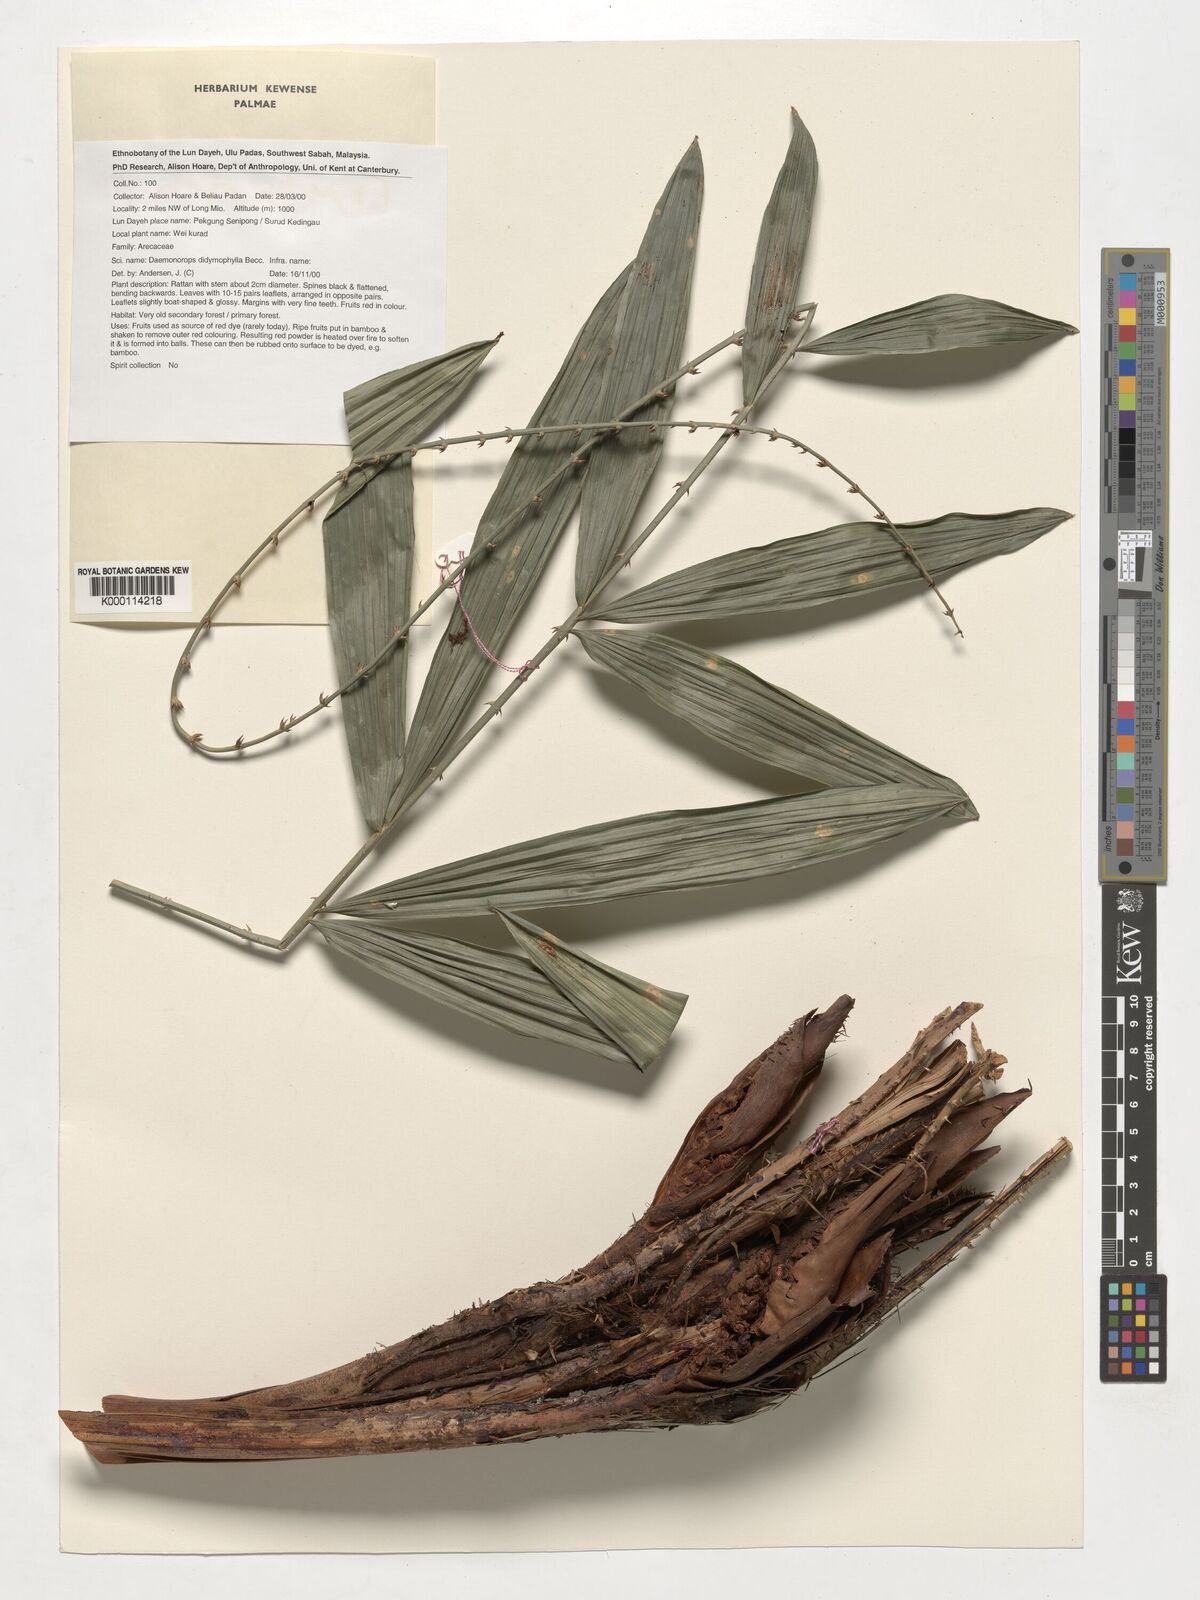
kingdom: Plantae
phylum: Tracheophyta
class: Liliopsida
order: Arecales
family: Arecaceae
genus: Calamus
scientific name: Calamus gracilipes
